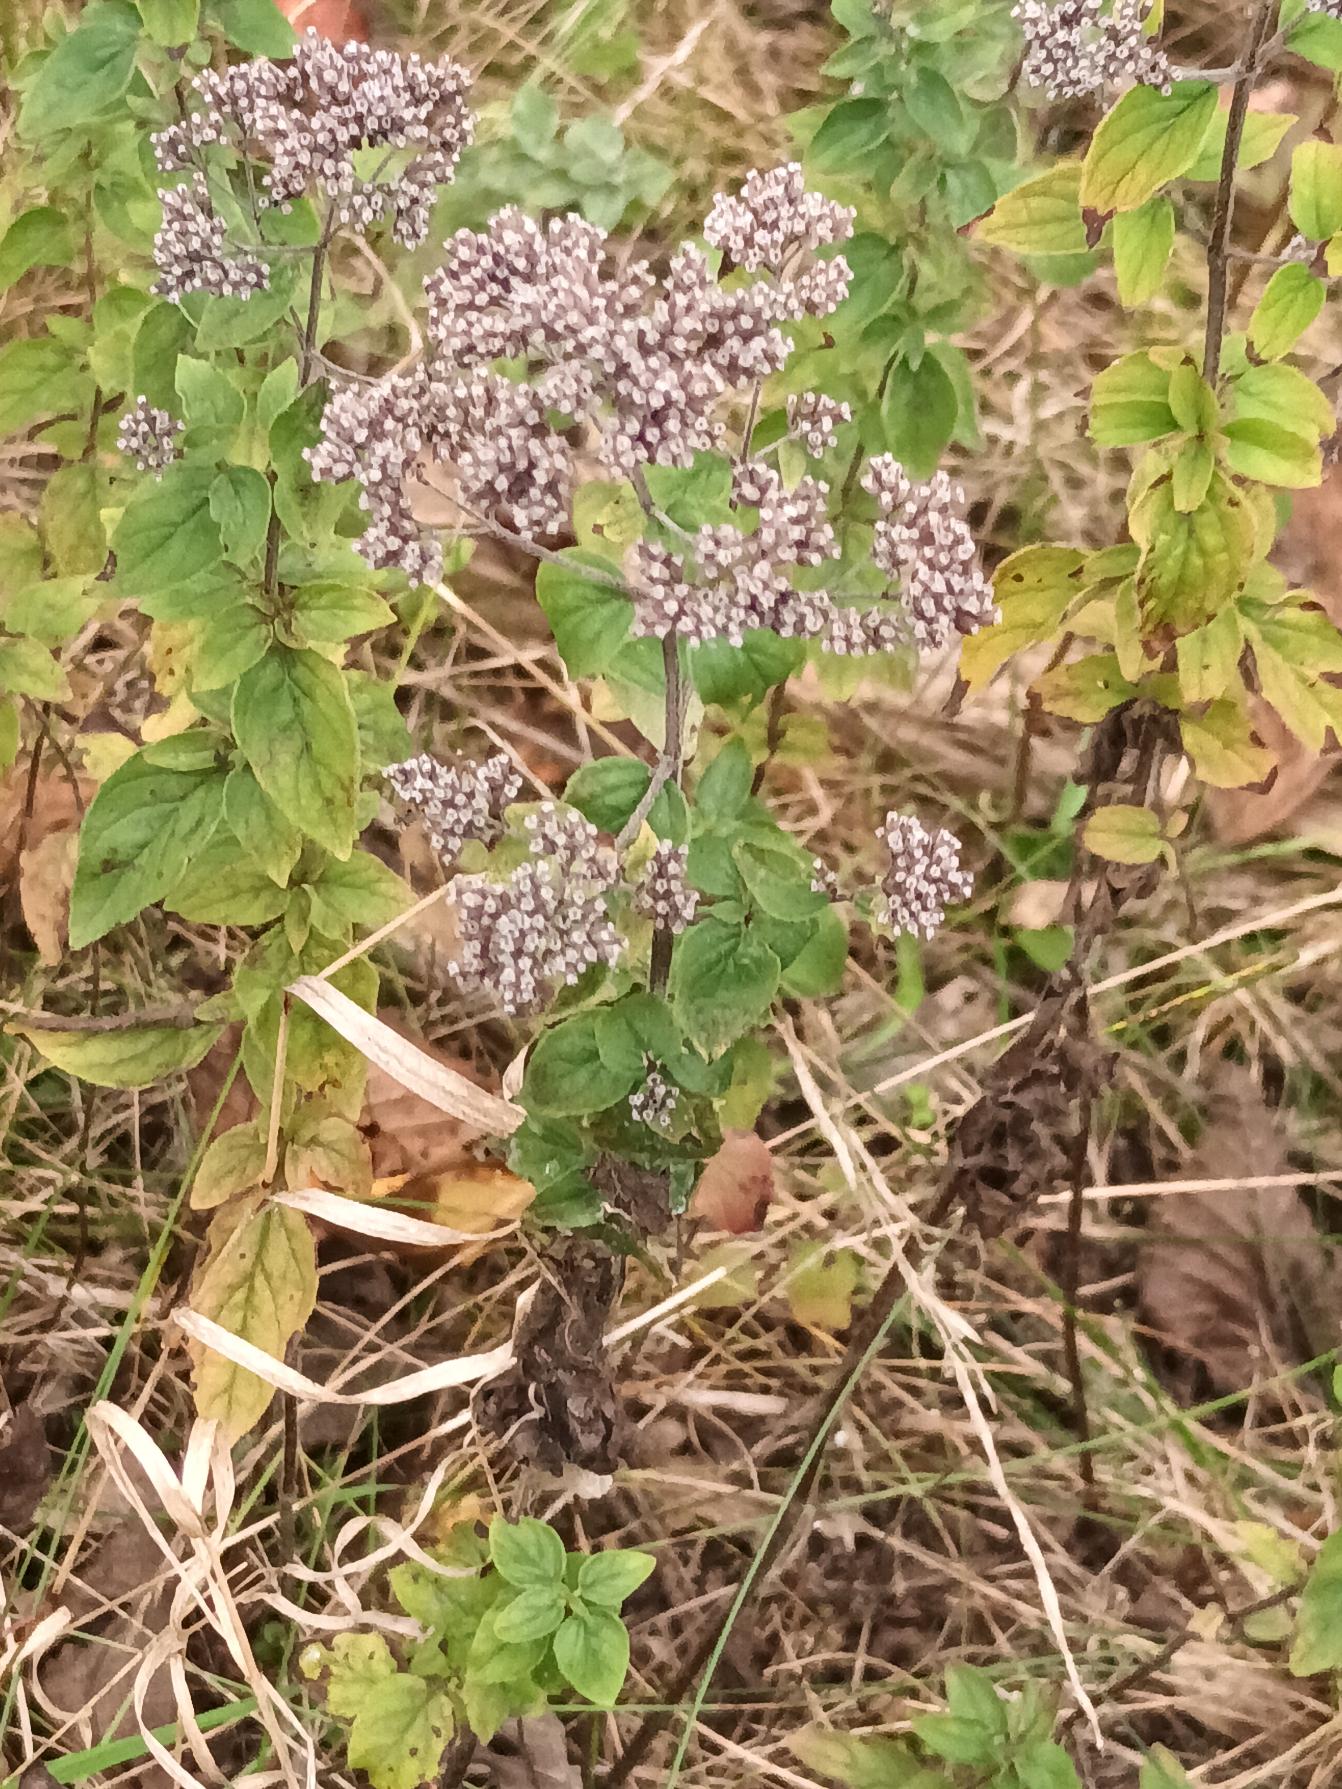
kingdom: Plantae
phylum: Tracheophyta
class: Magnoliopsida
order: Lamiales
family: Lamiaceae
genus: Origanum
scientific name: Origanum vulgare
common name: Merian
